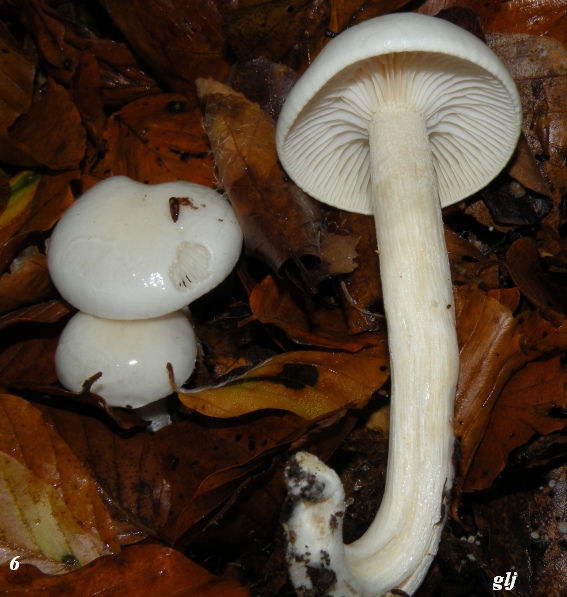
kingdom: Fungi
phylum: Basidiomycota
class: Agaricomycetes
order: Agaricales
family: Hygrophoraceae
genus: Hygrophorus
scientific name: Hygrophorus eburneus
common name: elfenbens-sneglehat
